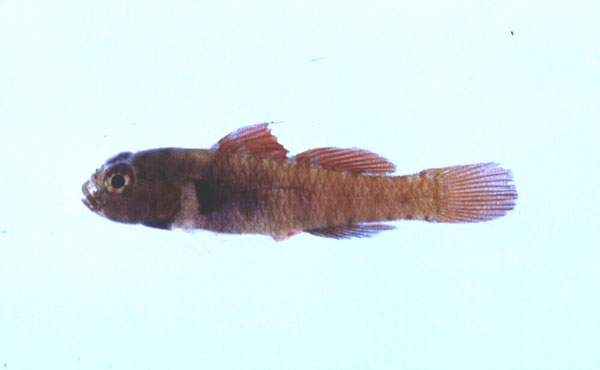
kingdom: Animalia
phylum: Chordata
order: Perciformes
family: Gobiidae
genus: Eviota
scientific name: Eviota monostigma
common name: Singlespot eviota
